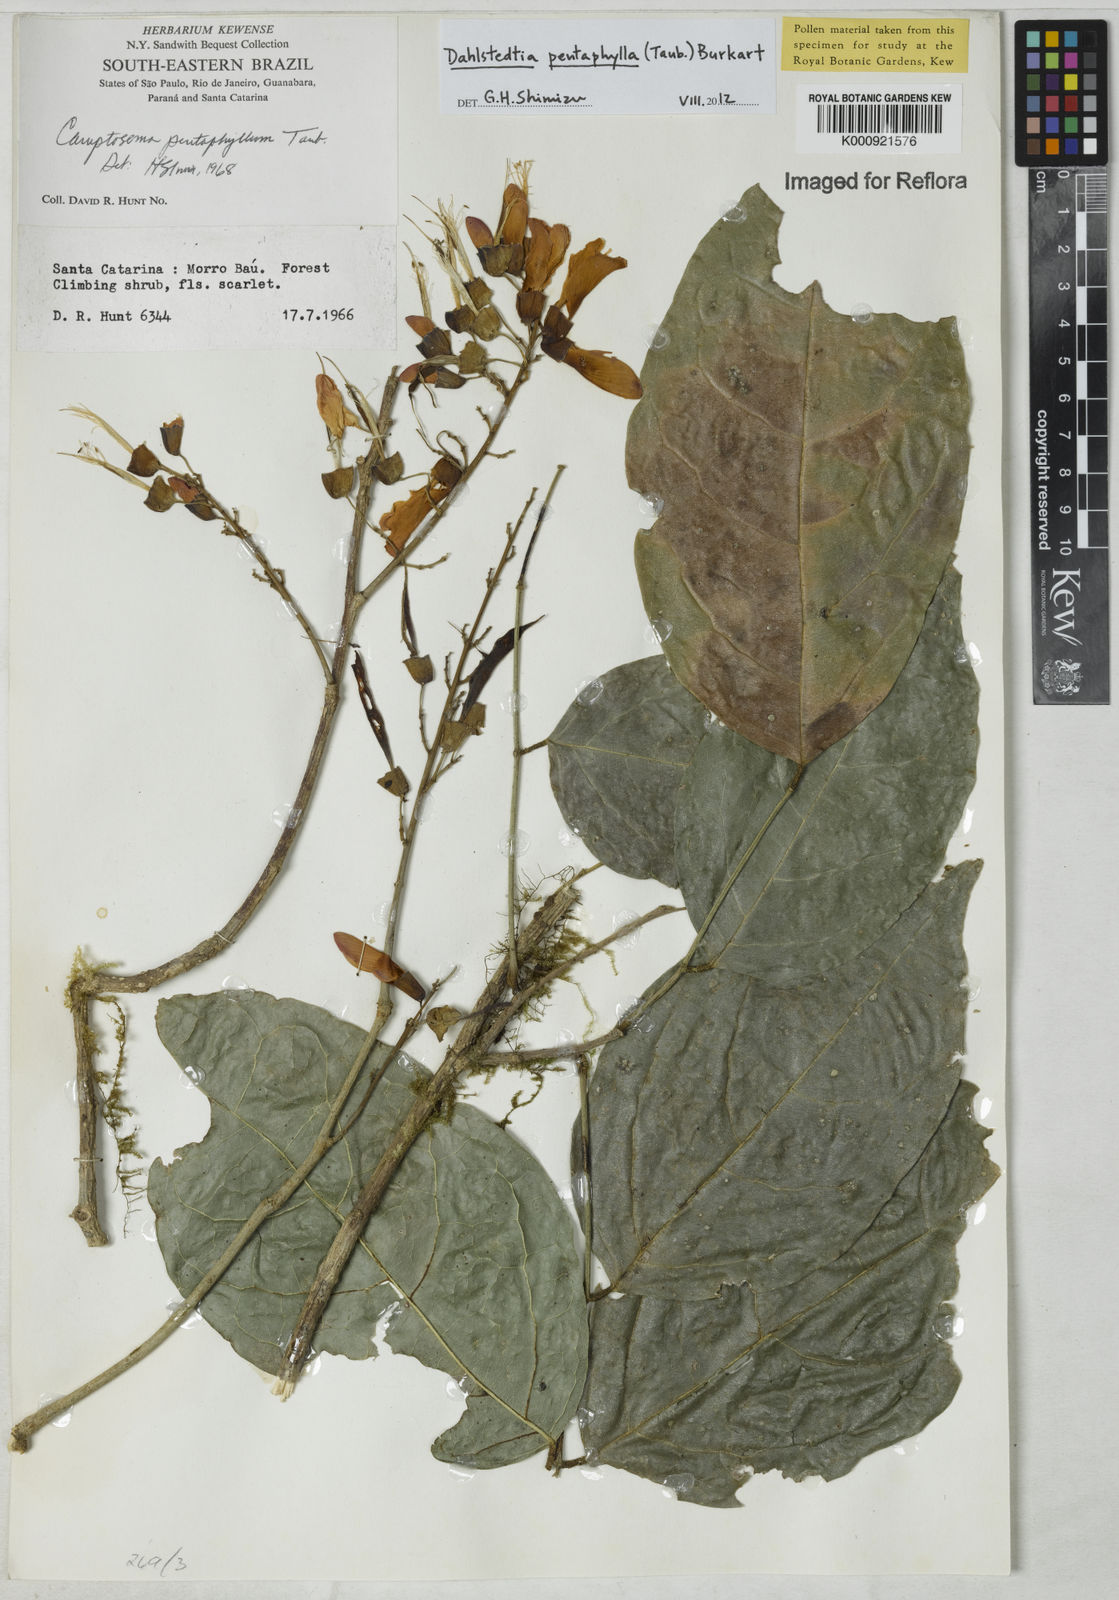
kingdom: Plantae
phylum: Tracheophyta
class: Magnoliopsida
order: Fabales
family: Fabaceae
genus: Dahlstedtia
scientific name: Dahlstedtia pentaphylla
